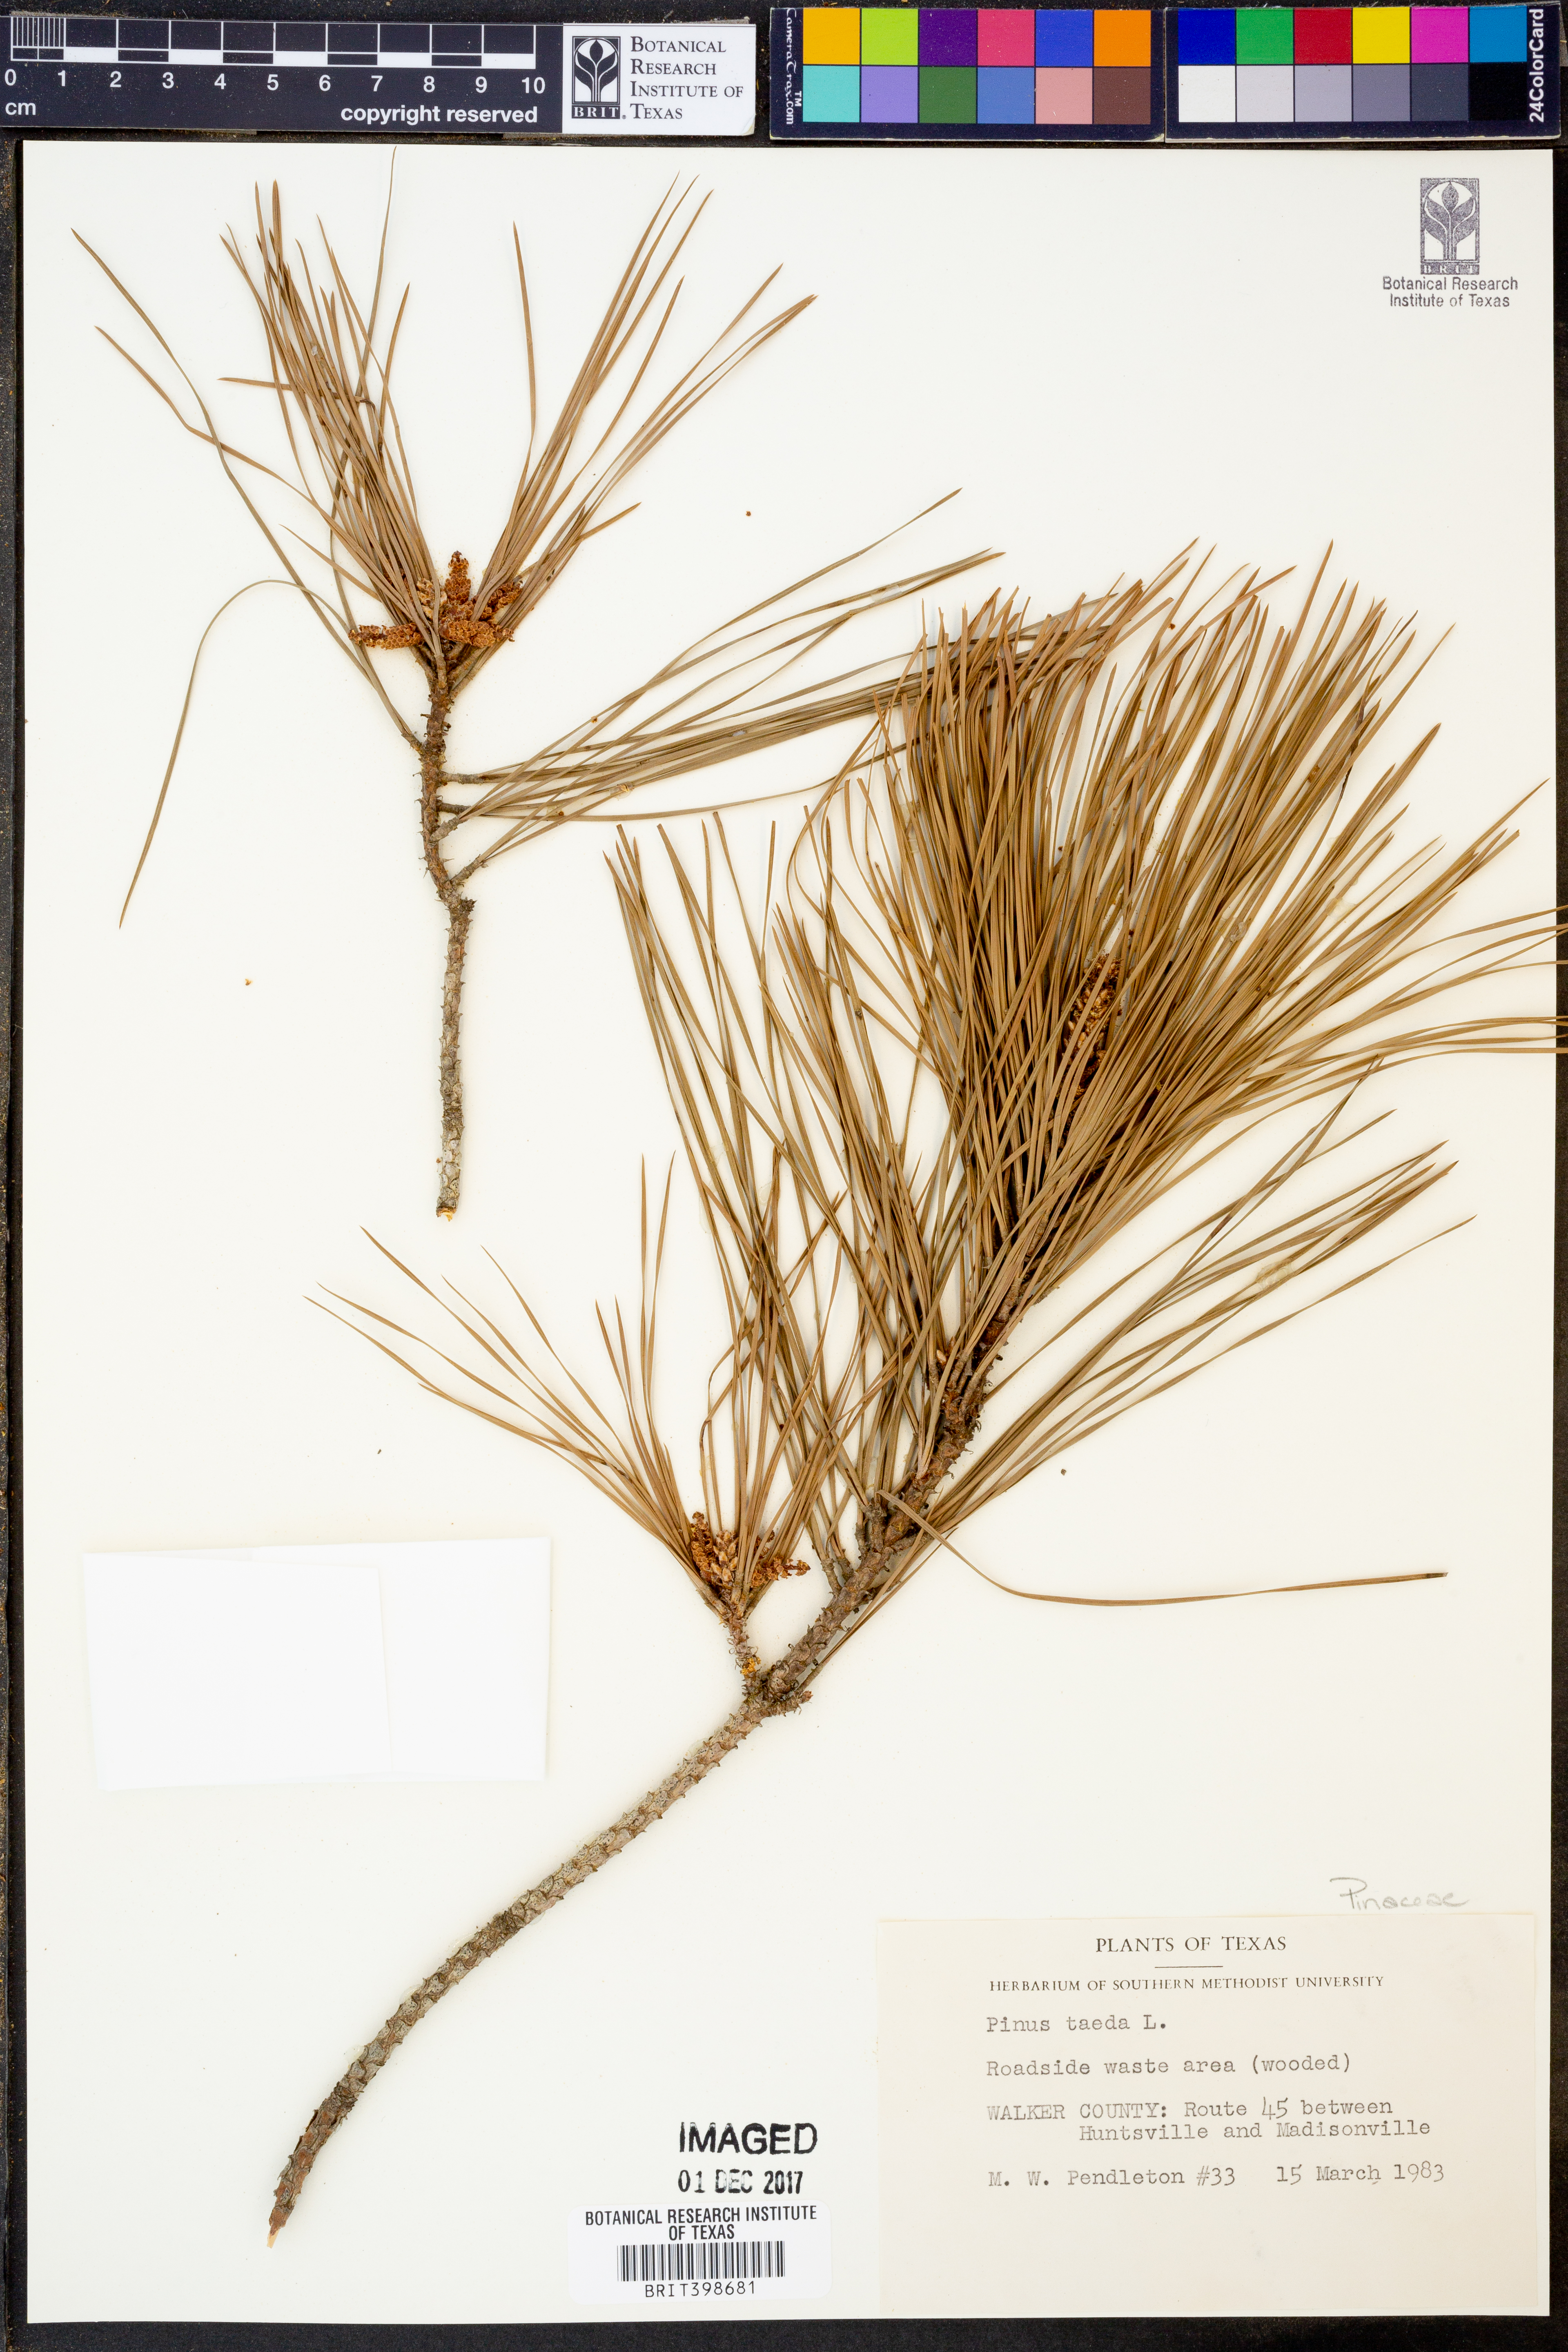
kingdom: Plantae
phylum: Tracheophyta
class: Pinopsida
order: Pinales
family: Pinaceae
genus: Pinus
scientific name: Pinus taeda
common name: Loblolly pine
